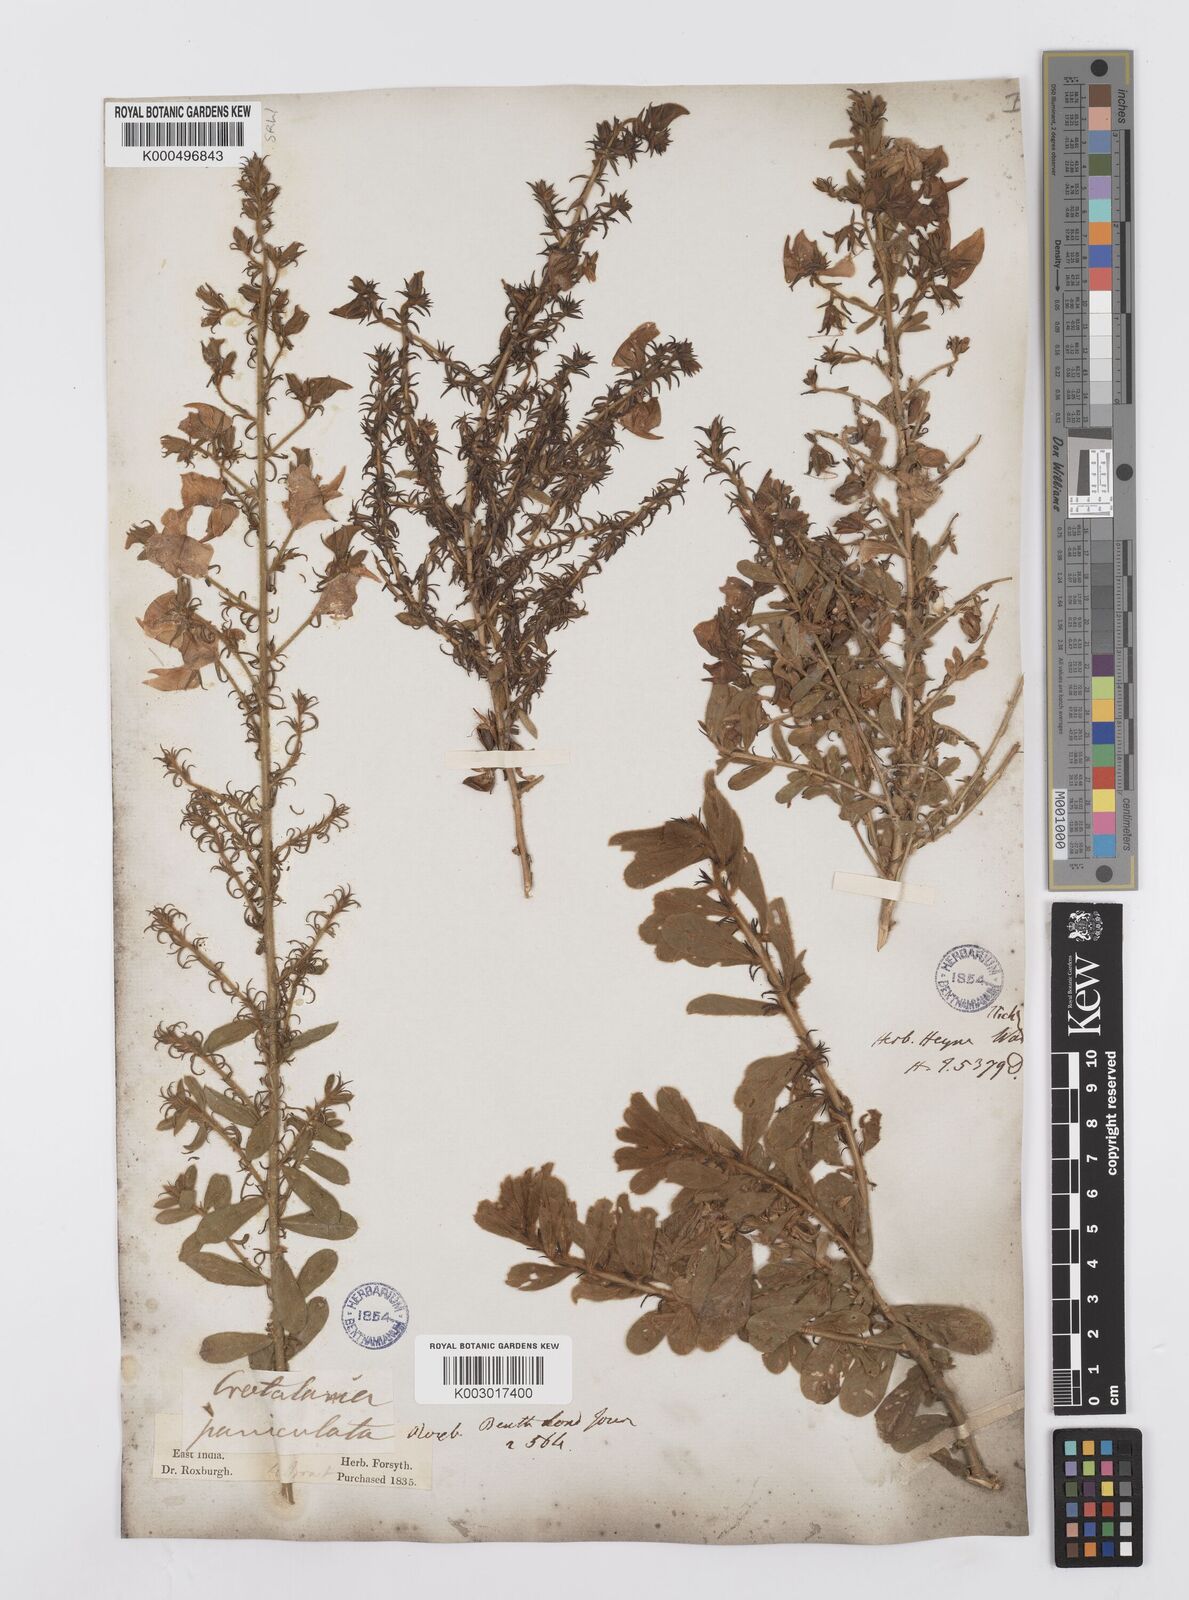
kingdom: Plantae
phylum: Tracheophyta
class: Magnoliopsida
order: Fabales
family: Fabaceae
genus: Crotalaria
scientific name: Crotalaria paniculata
